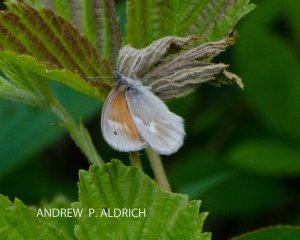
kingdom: Animalia
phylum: Arthropoda
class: Insecta
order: Lepidoptera
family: Nymphalidae
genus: Coenonympha
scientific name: Coenonympha tullia
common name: Large Heath
